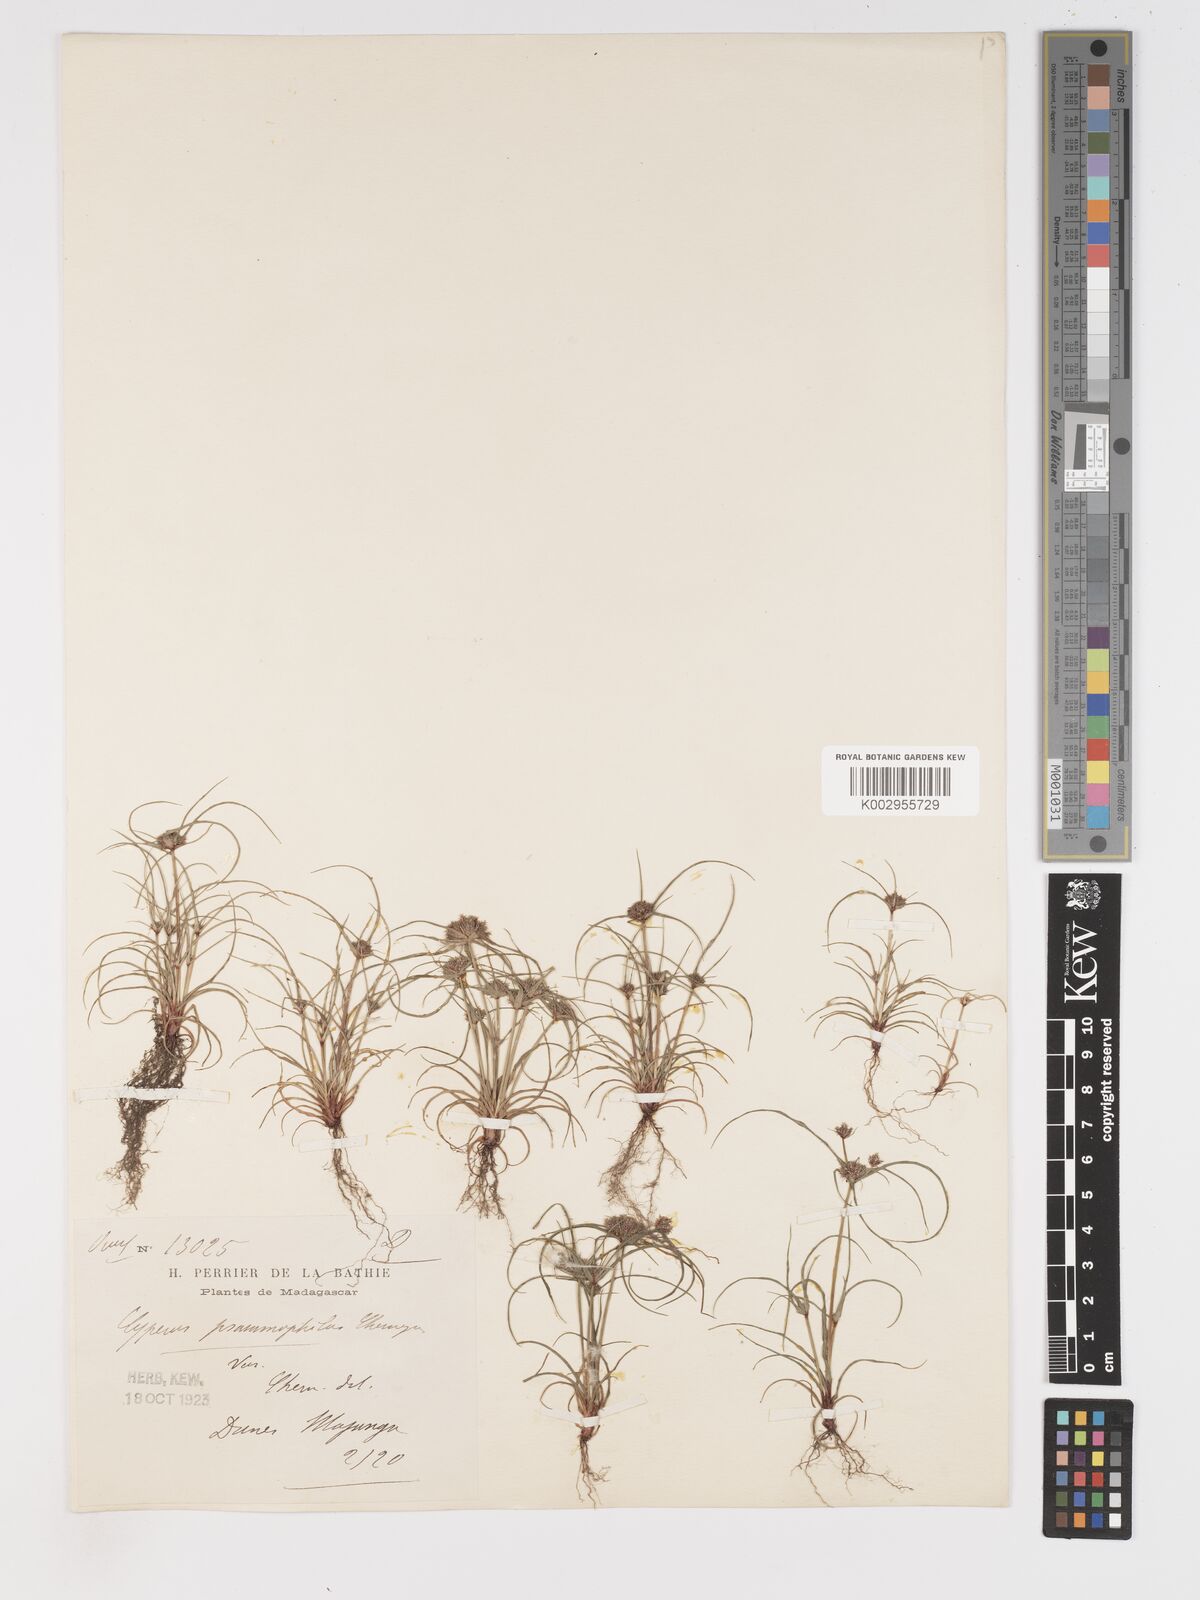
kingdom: Plantae
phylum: Tracheophyta
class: Liliopsida
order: Poales
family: Cyperaceae
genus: Cyperus
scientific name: Cyperus psammophilus
